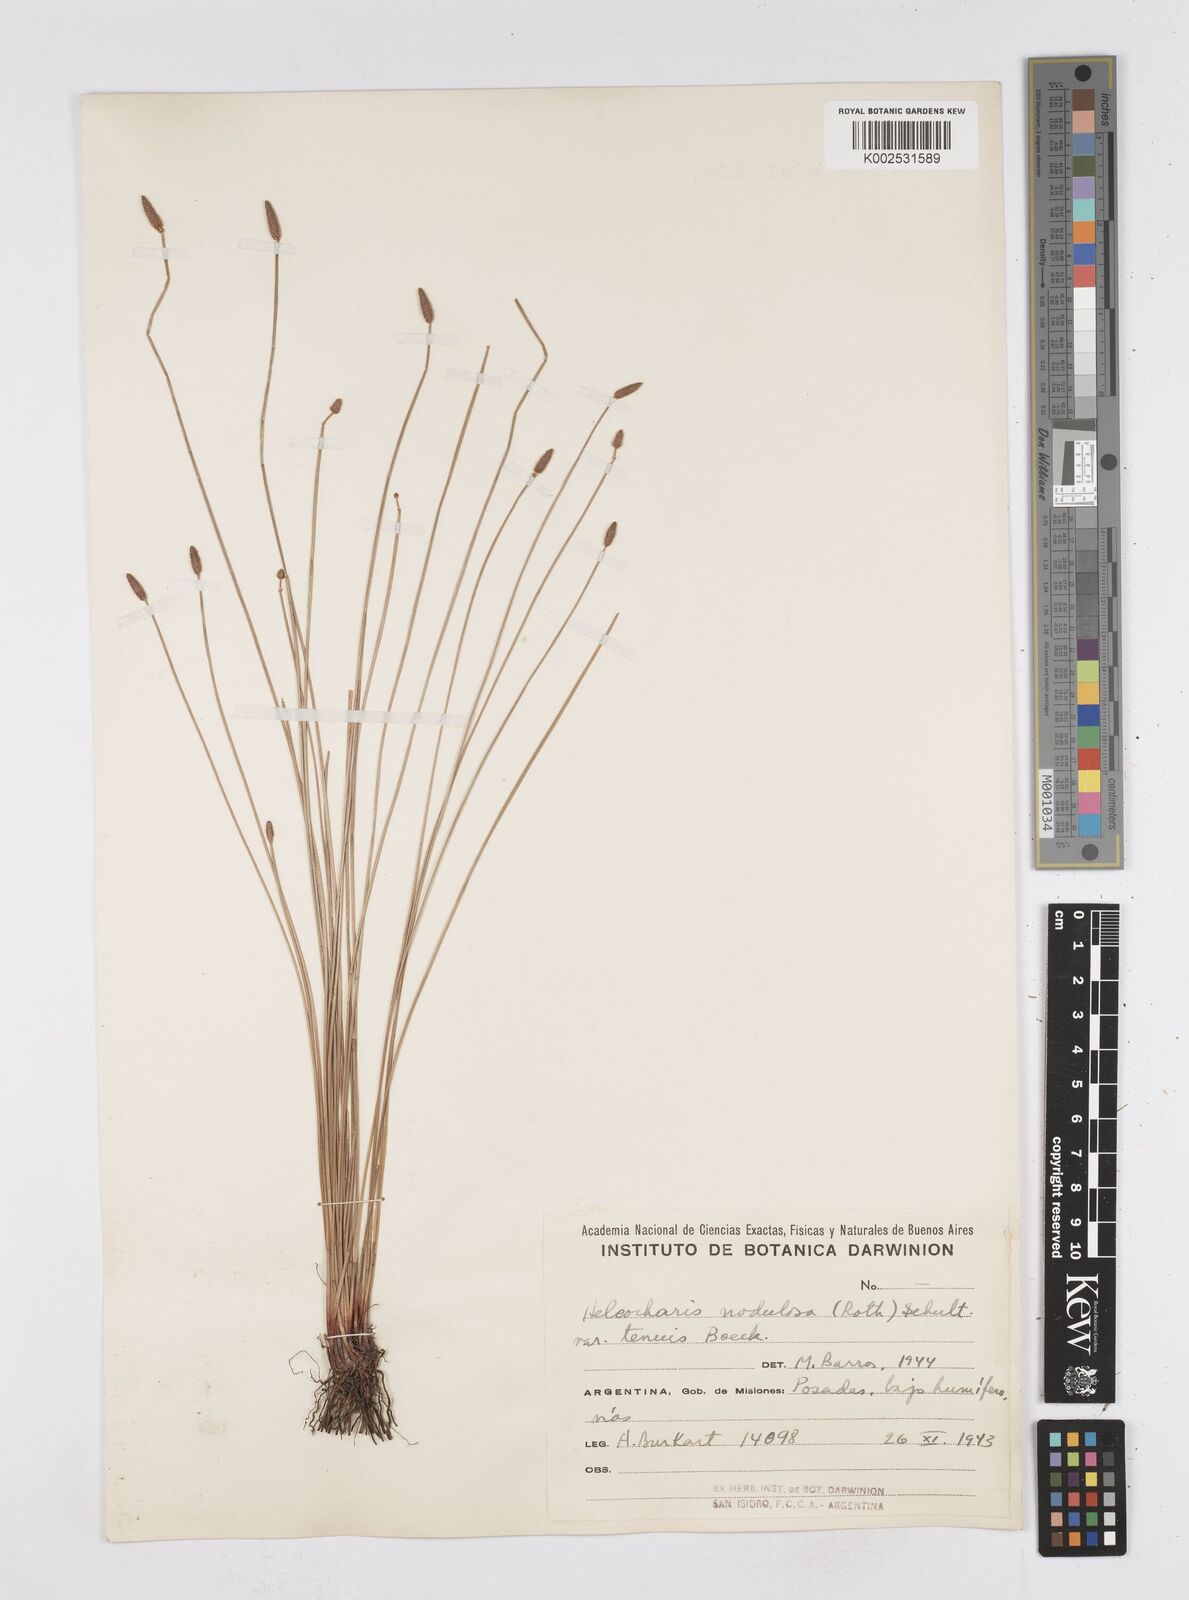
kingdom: Plantae
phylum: Tracheophyta
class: Liliopsida
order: Poales
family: Cyperaceae
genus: Eleocharis
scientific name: Eleocharis montana
